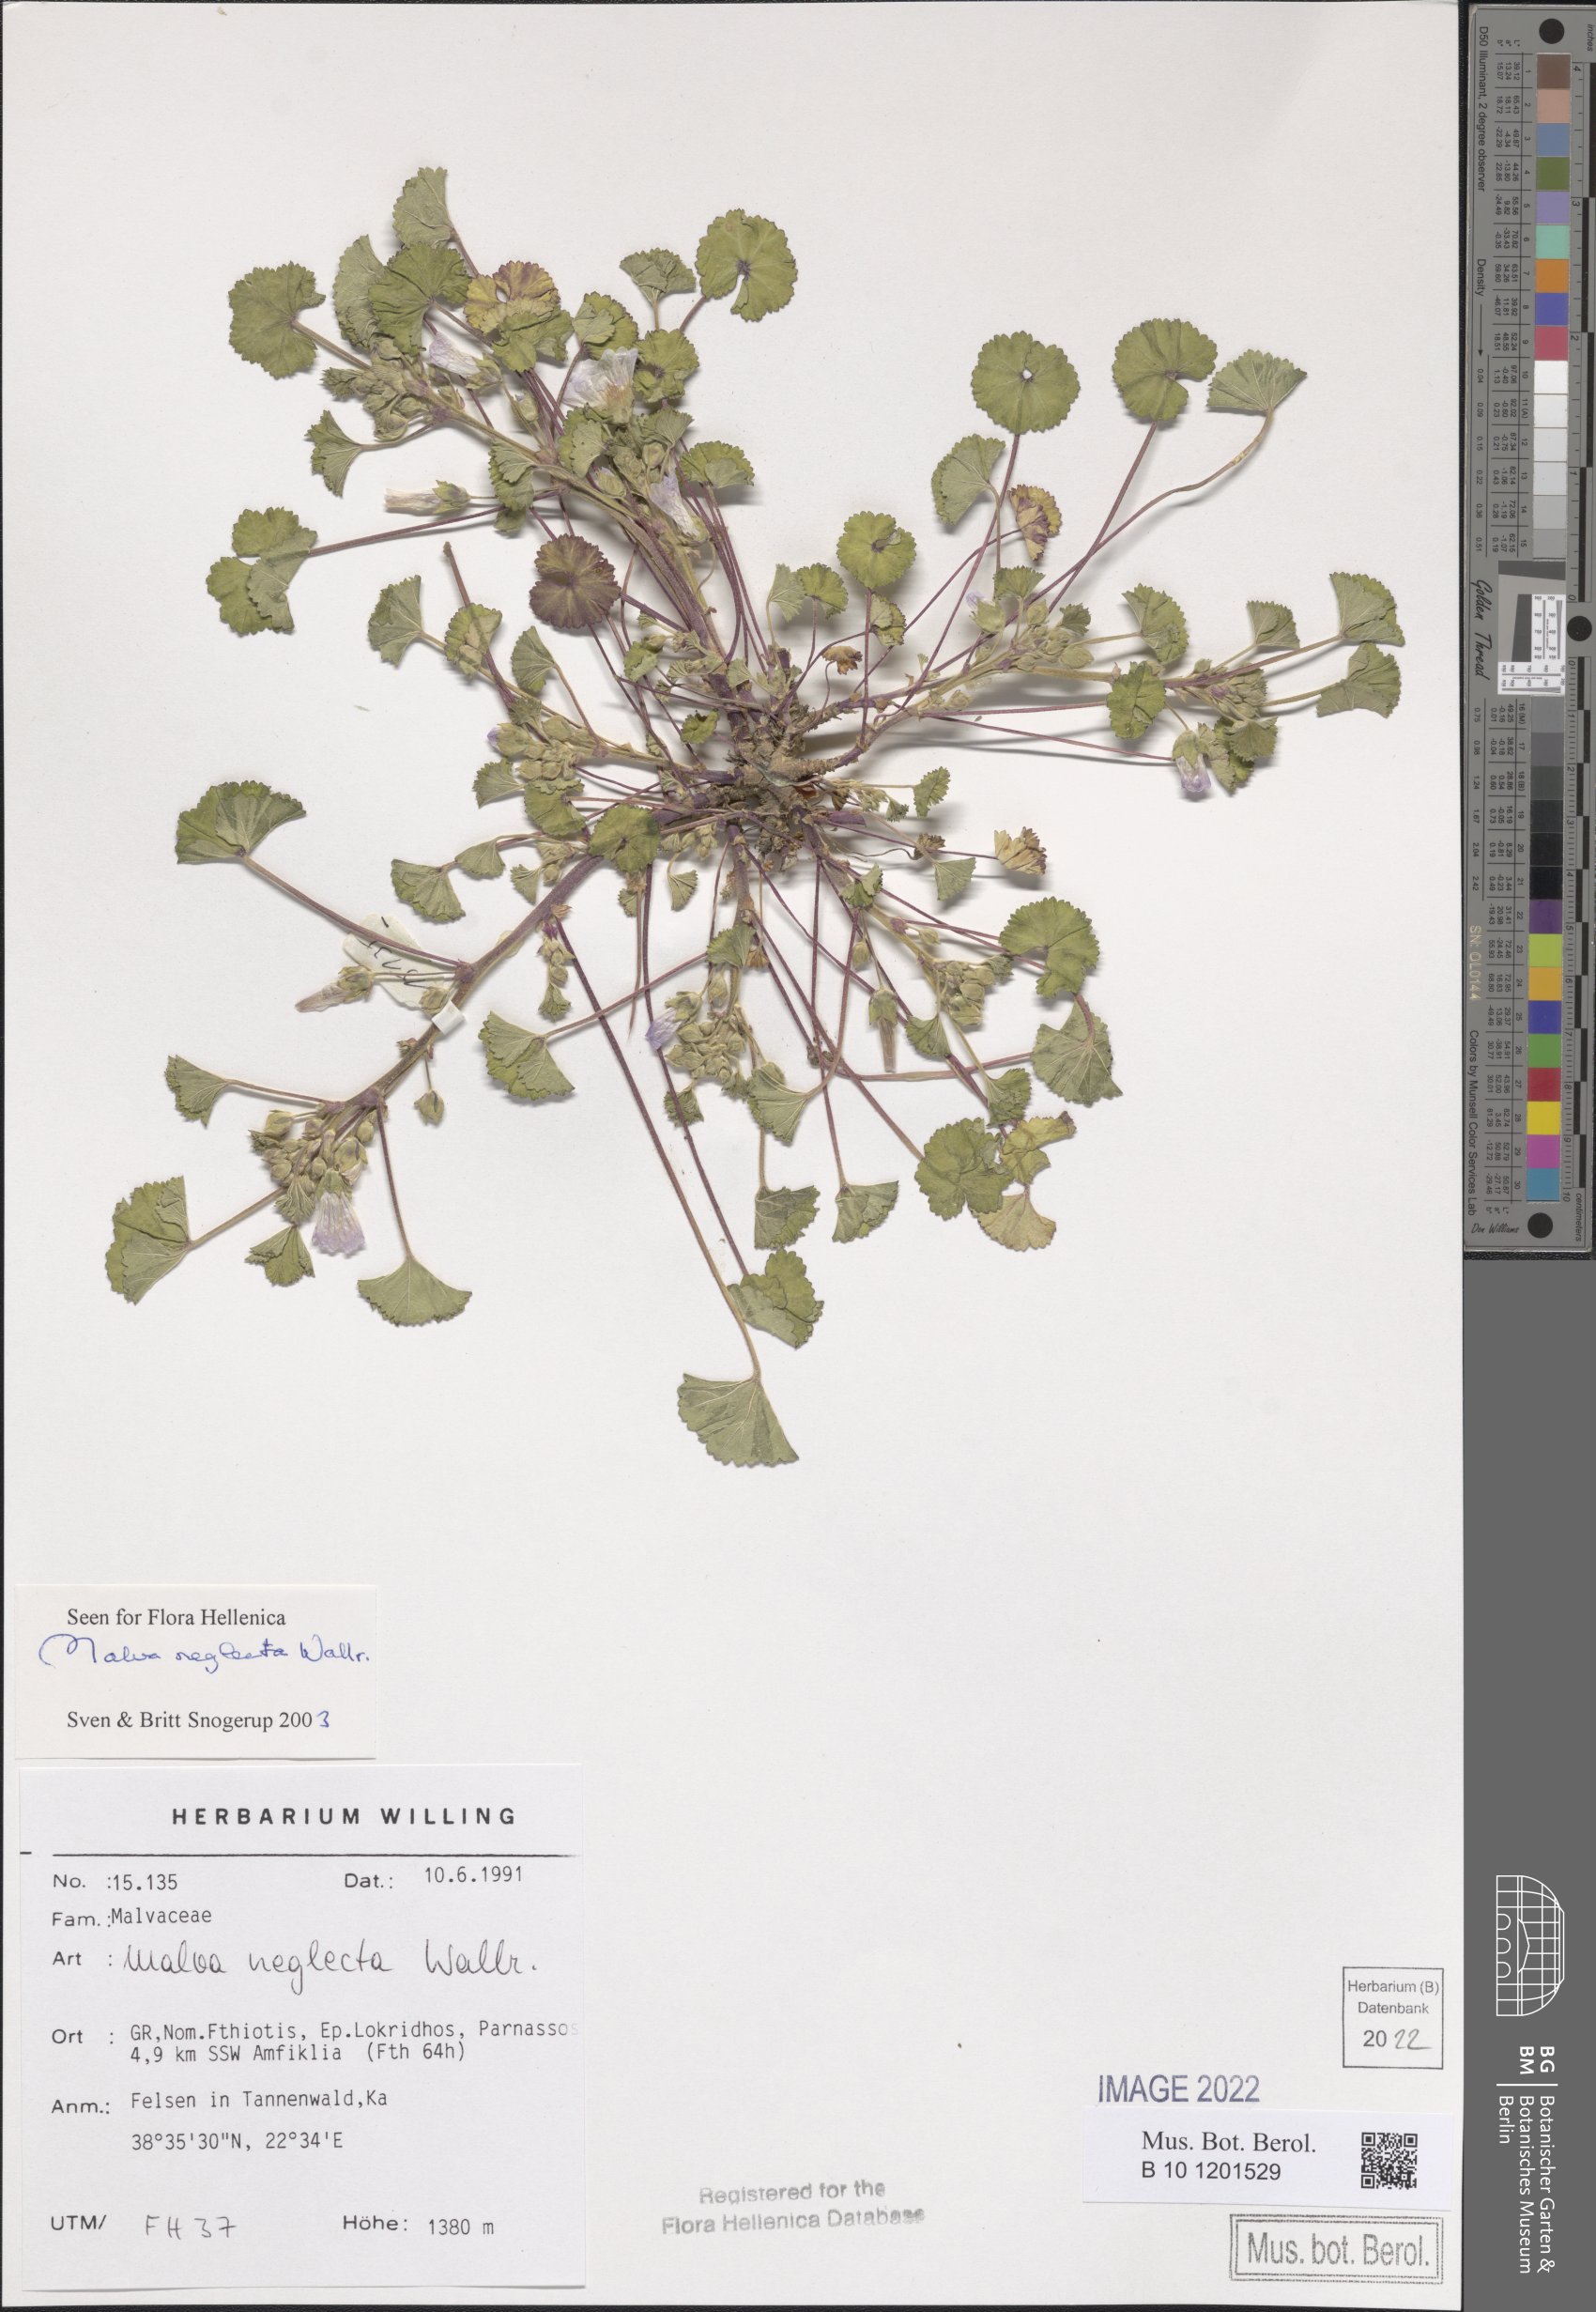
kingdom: Plantae
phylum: Tracheophyta
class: Magnoliopsida
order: Malvales
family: Malvaceae
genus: Malva
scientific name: Malva neglecta
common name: Common mallow
